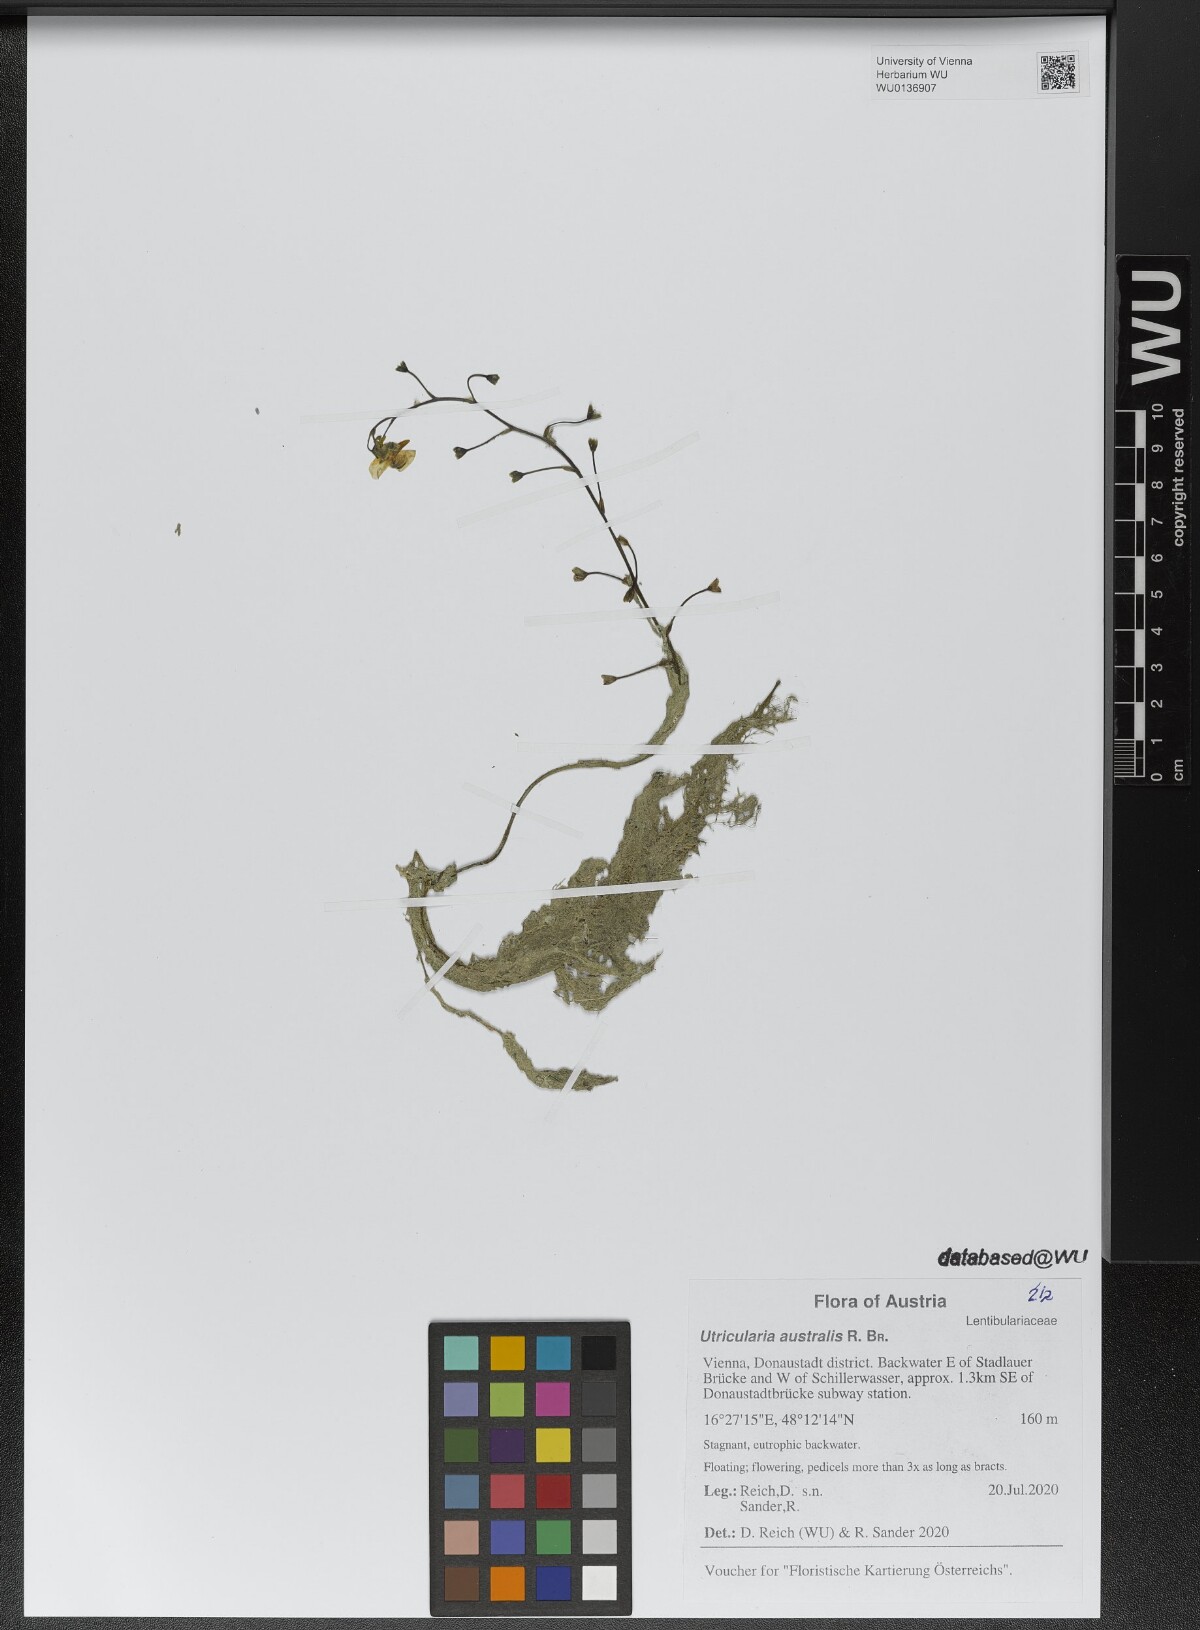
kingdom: Plantae
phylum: Tracheophyta
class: Magnoliopsida
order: Lamiales
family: Lentibulariaceae
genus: Utricularia
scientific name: Utricularia australis
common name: Bladderwort
